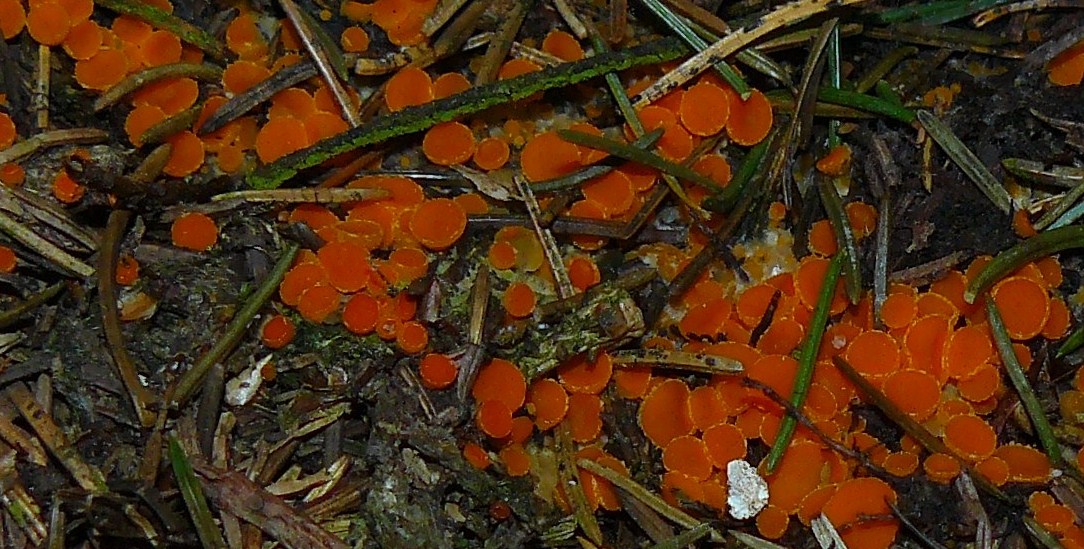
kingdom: Fungi
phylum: Ascomycota
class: Pezizomycetes
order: Pezizales
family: Pyronemataceae
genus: Byssonectria
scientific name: Byssonectria terrestris
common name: hjortebæger
